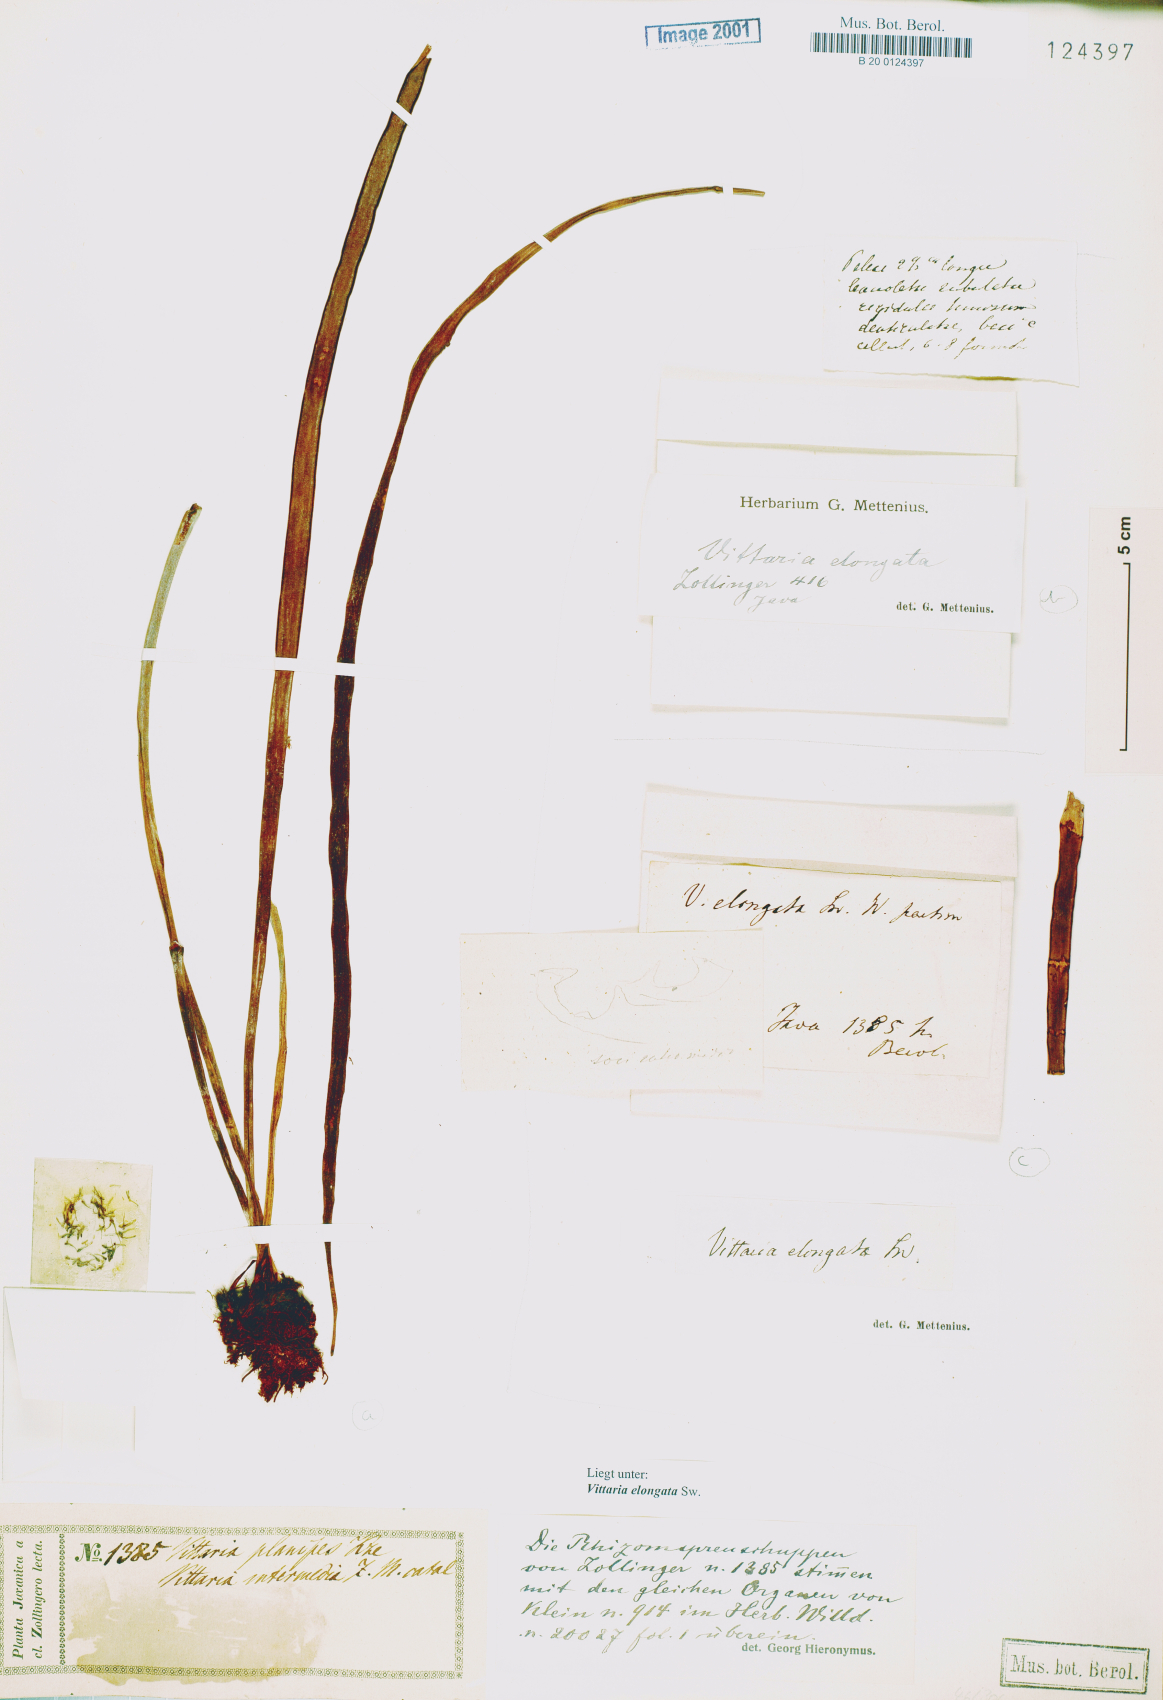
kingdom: Plantae
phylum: Tracheophyta
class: Polypodiopsida
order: Polypodiales
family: Pteridaceae
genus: Haplopteris
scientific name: Haplopteris elongata
